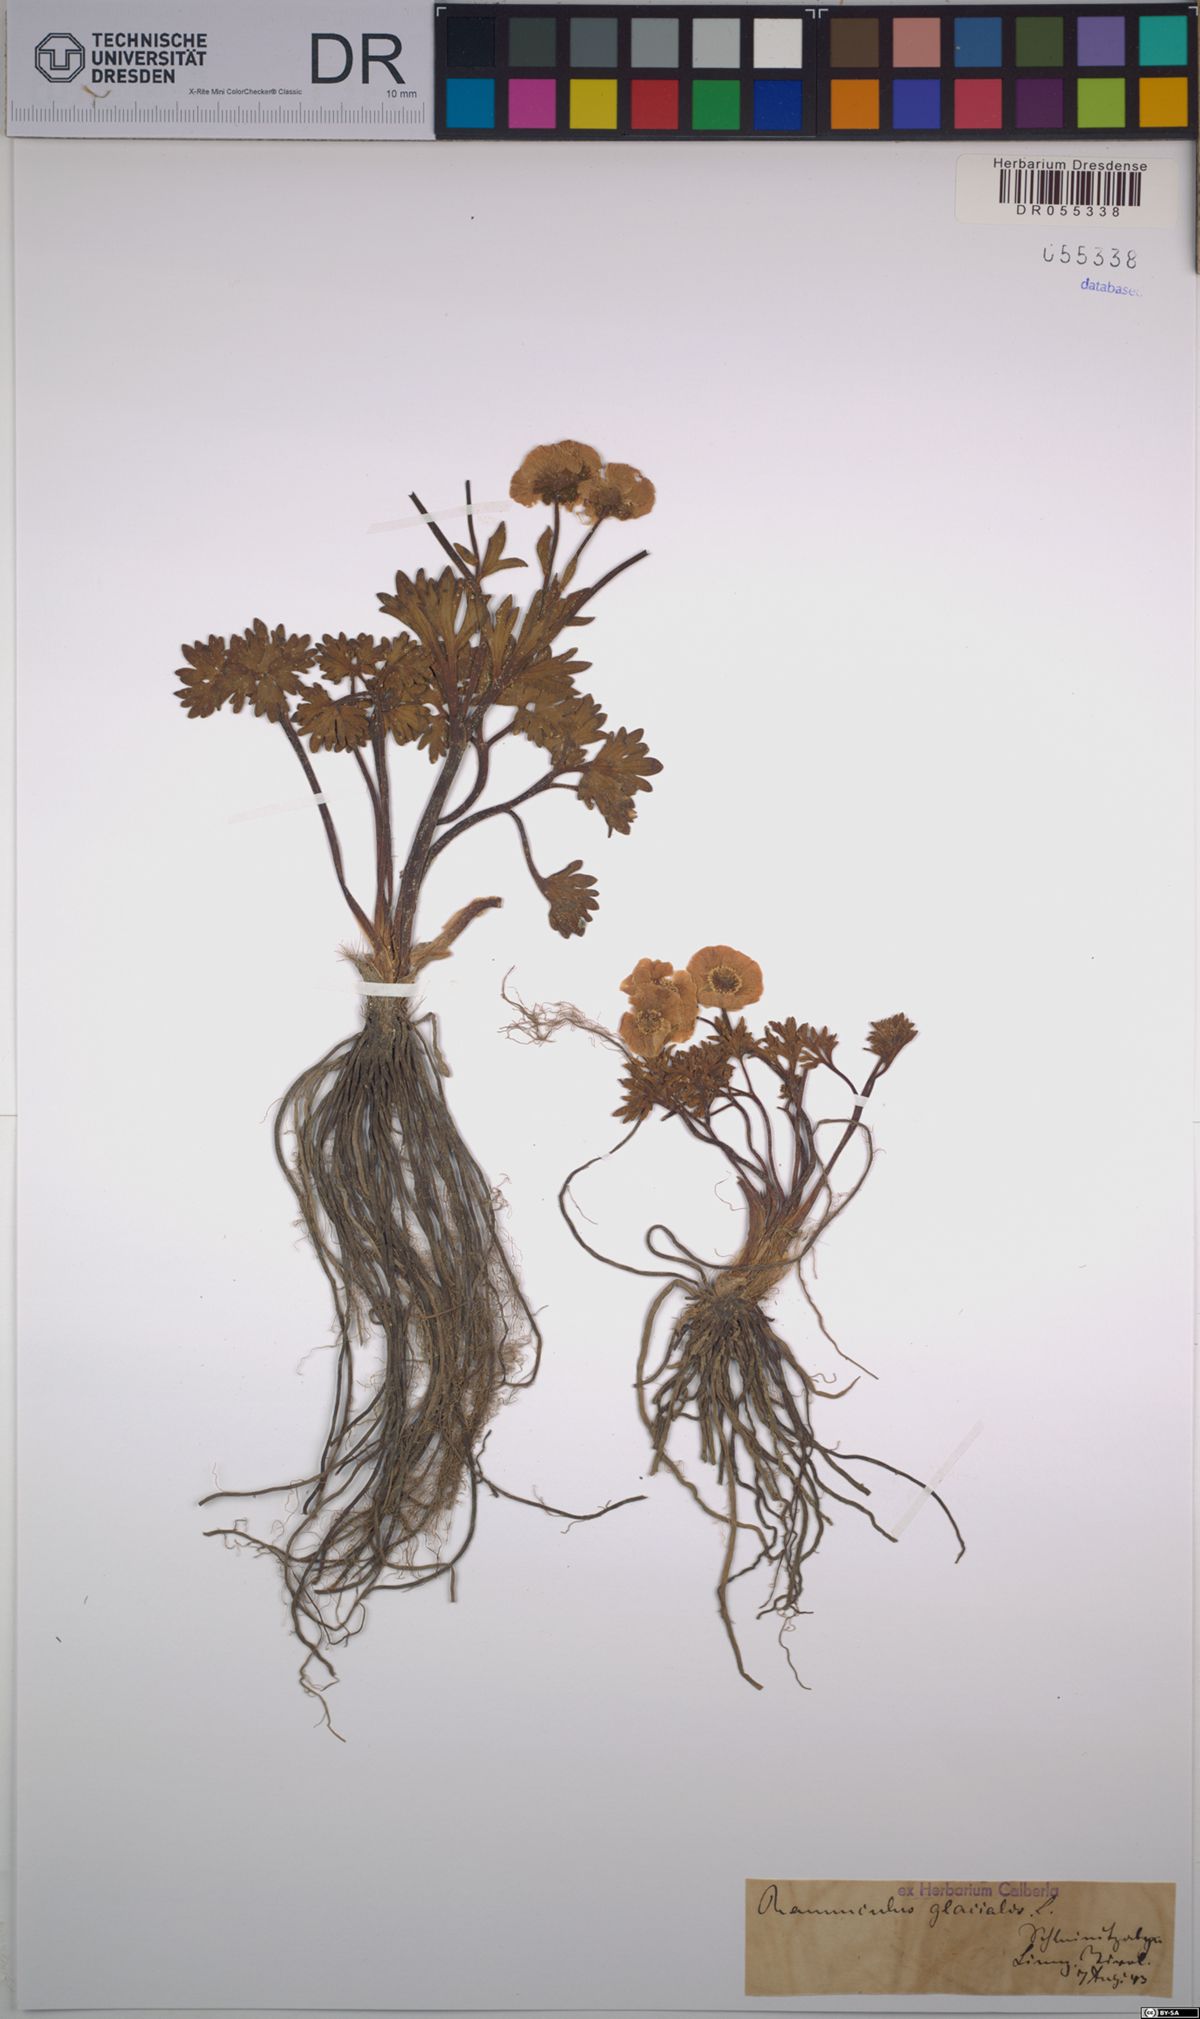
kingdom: Plantae
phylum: Tracheophyta
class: Magnoliopsida
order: Ranunculales
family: Ranunculaceae
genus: Ranunculus
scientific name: Ranunculus glacialis
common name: Glacier buttercup
